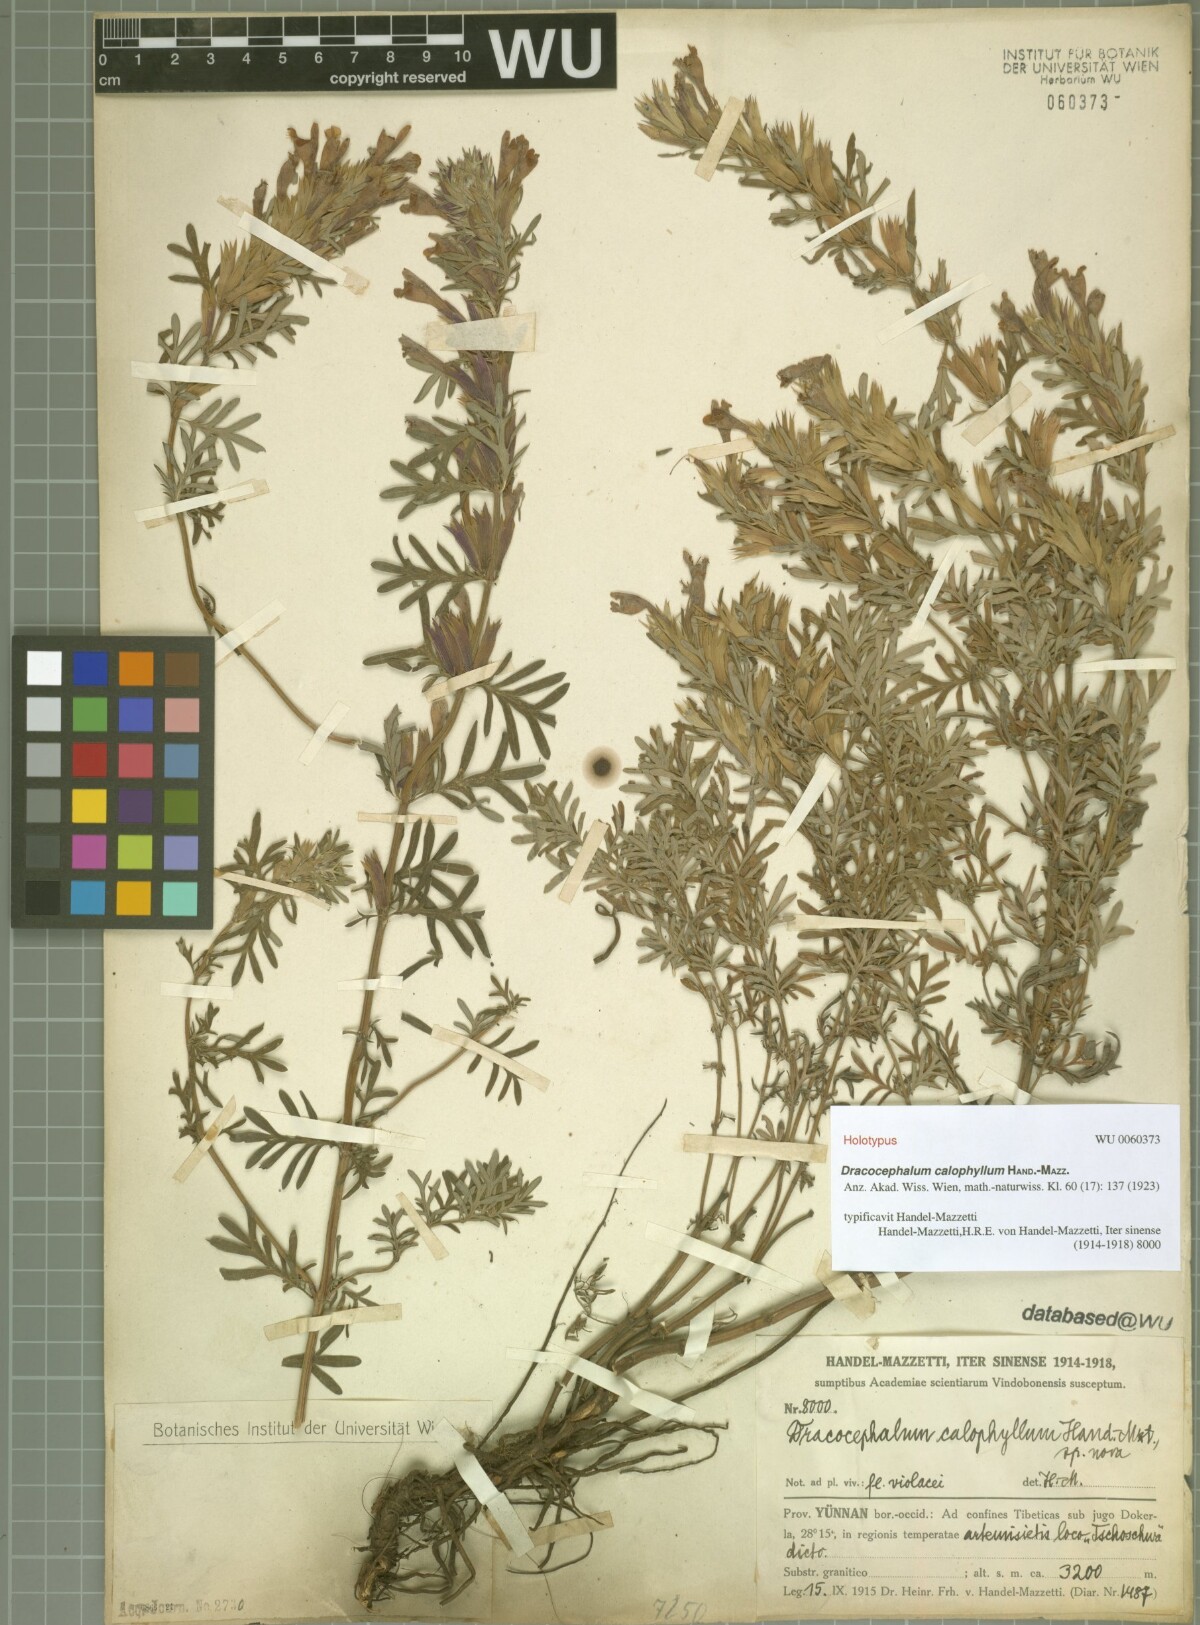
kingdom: Plantae
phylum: Tracheophyta
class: Magnoliopsida
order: Lamiales
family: Lamiaceae
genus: Dracocephalum
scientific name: Dracocephalum calophyllum
